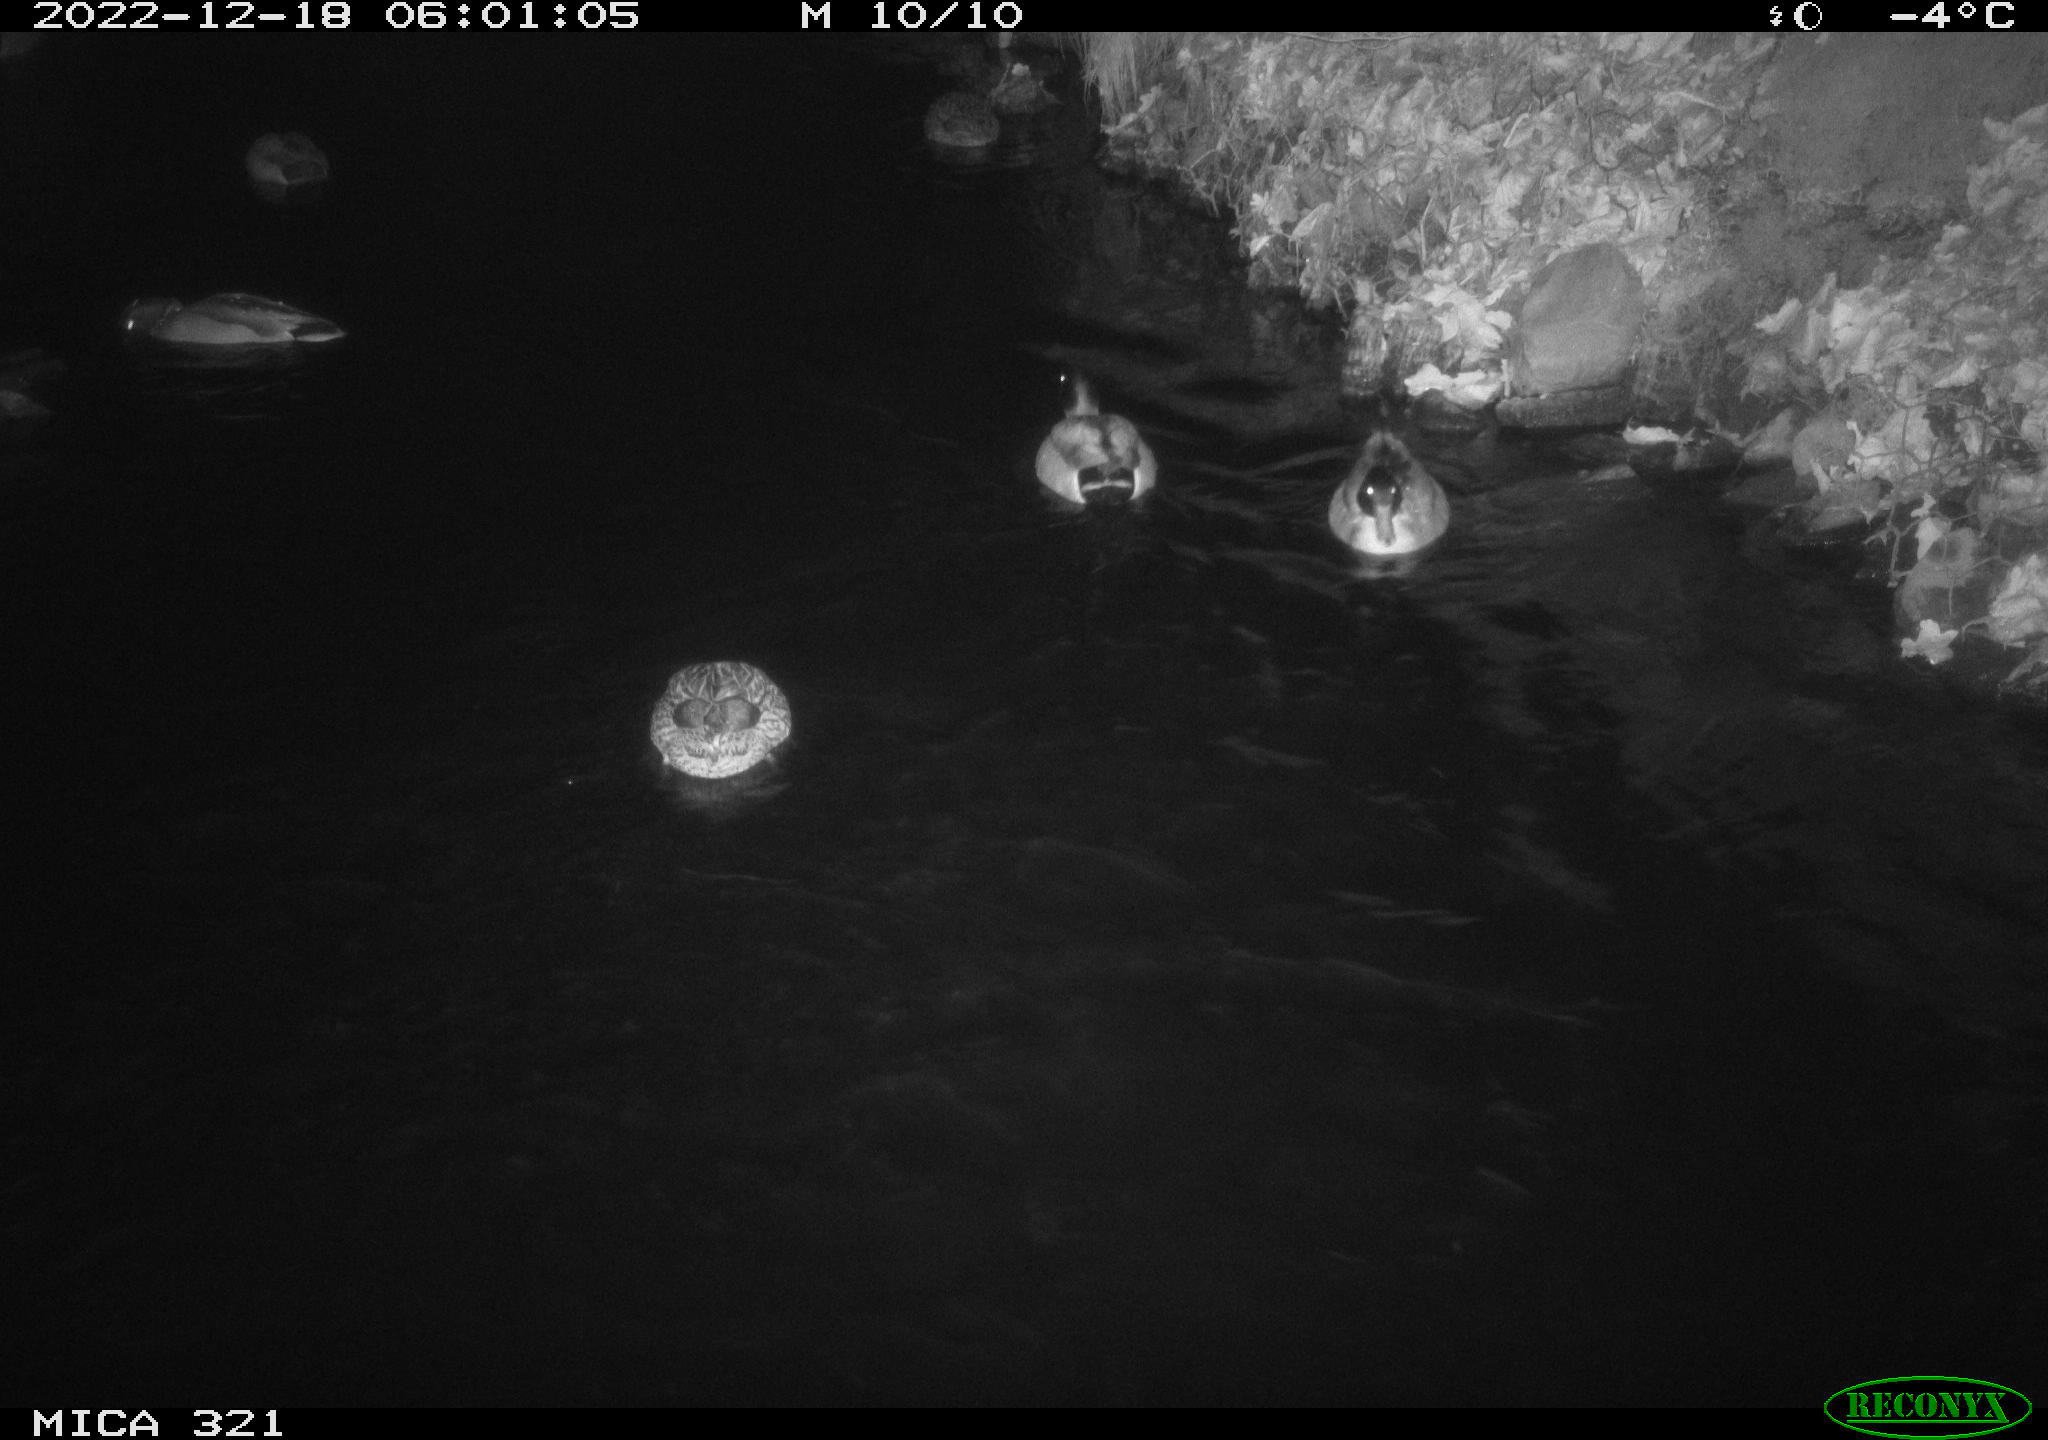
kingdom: Animalia
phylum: Chordata
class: Aves
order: Anseriformes
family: Anatidae
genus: Anas
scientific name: Anas
